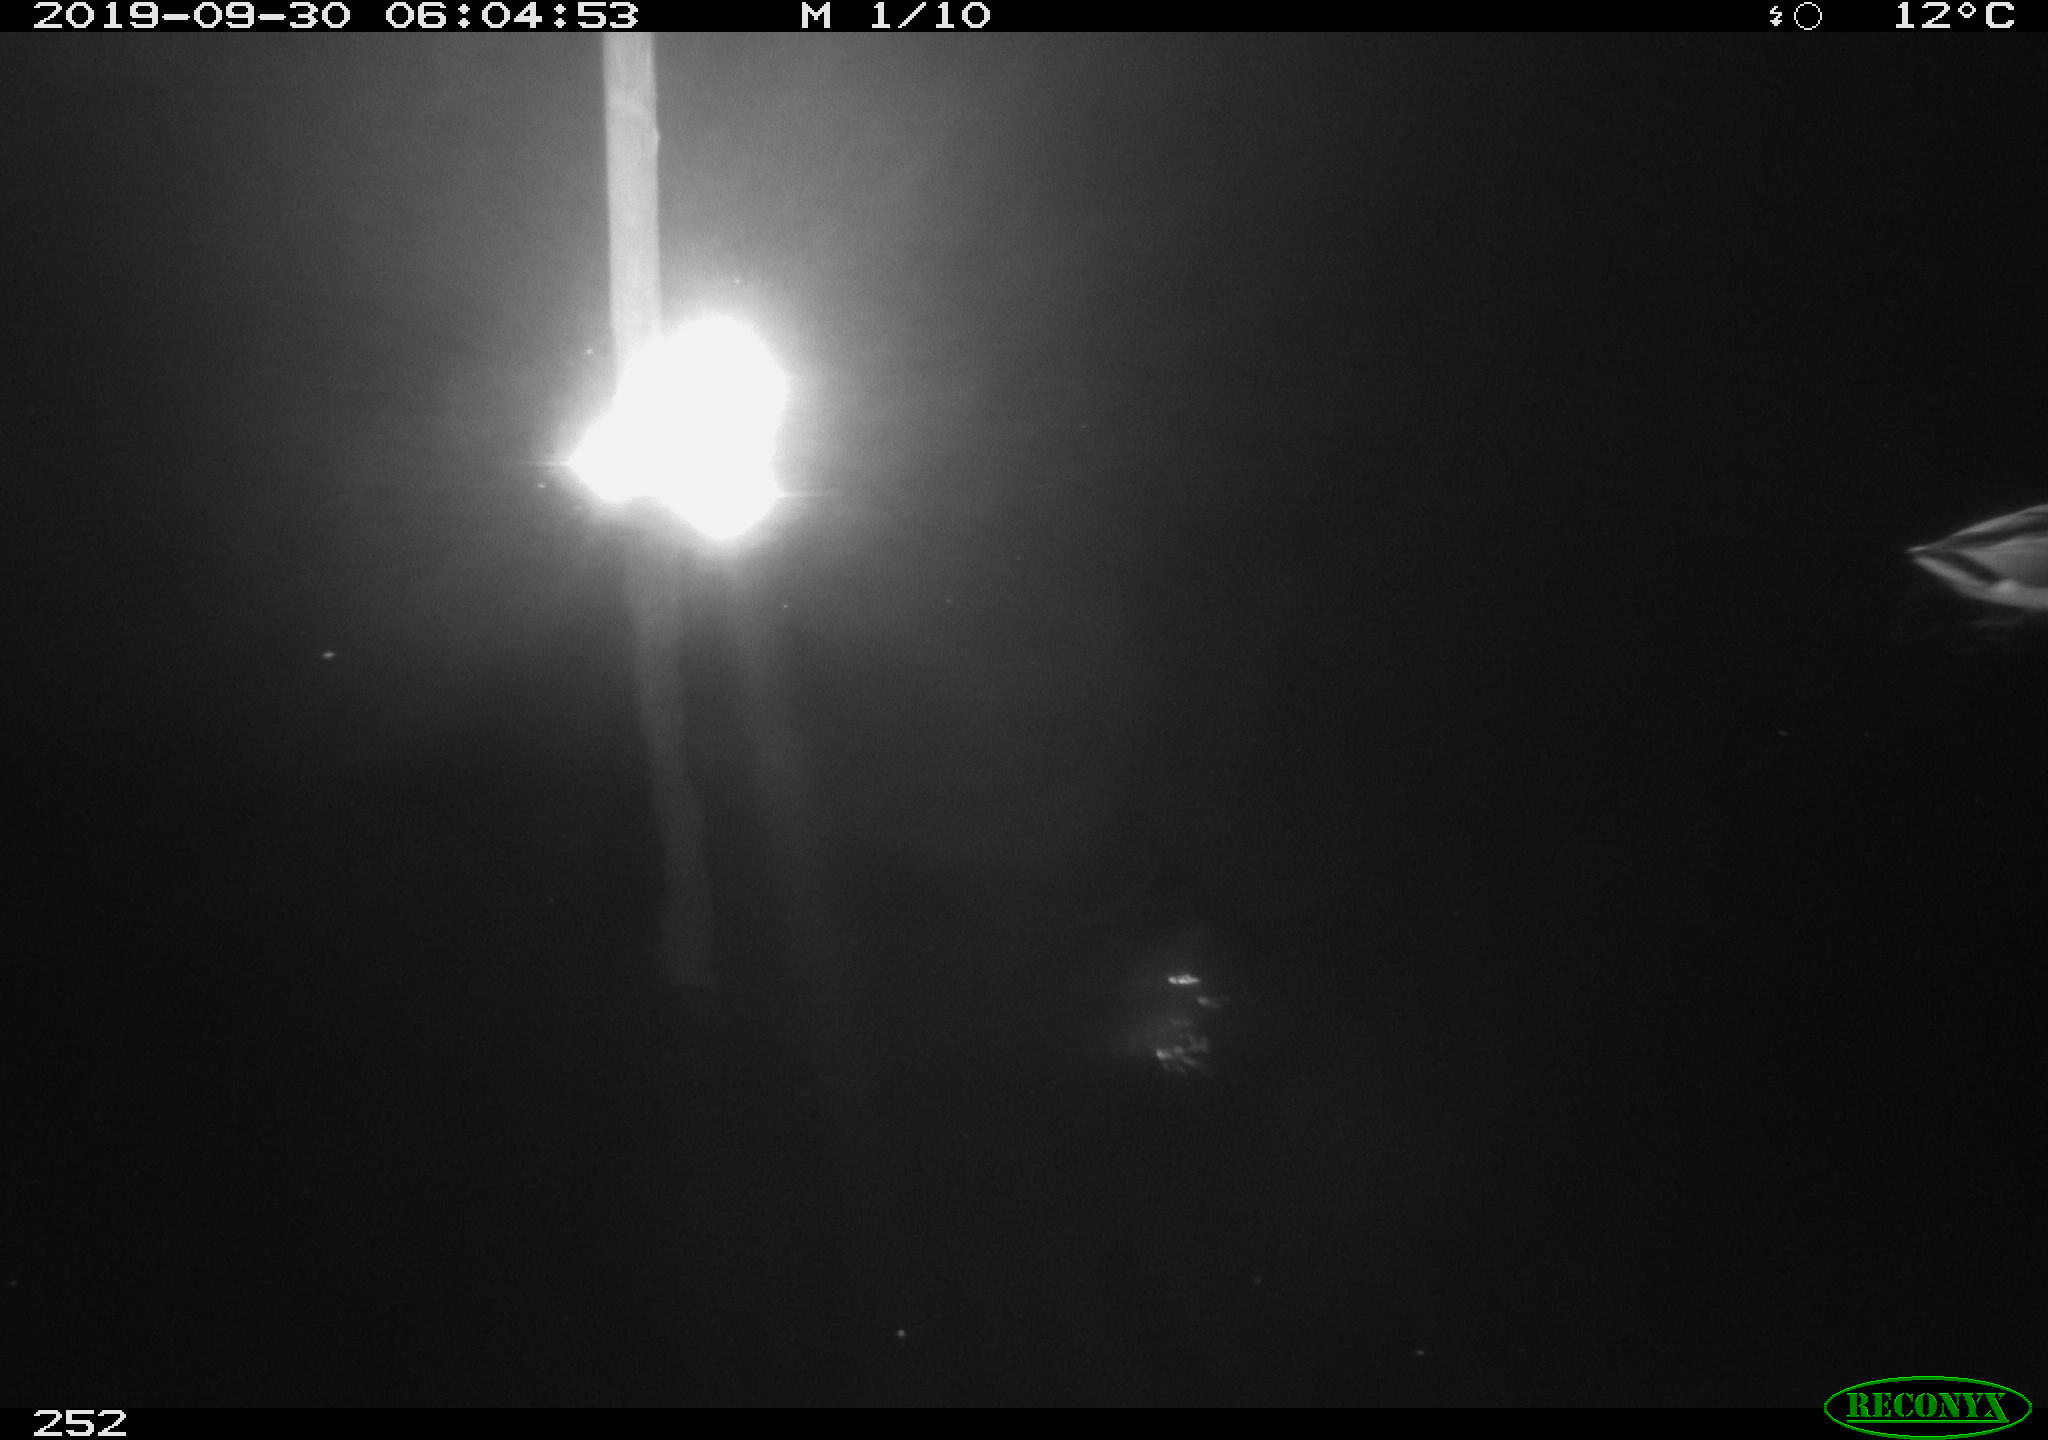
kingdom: Animalia
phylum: Chordata
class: Aves
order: Anseriformes
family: Anatidae
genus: Anas
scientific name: Anas platyrhynchos
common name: Mallard
